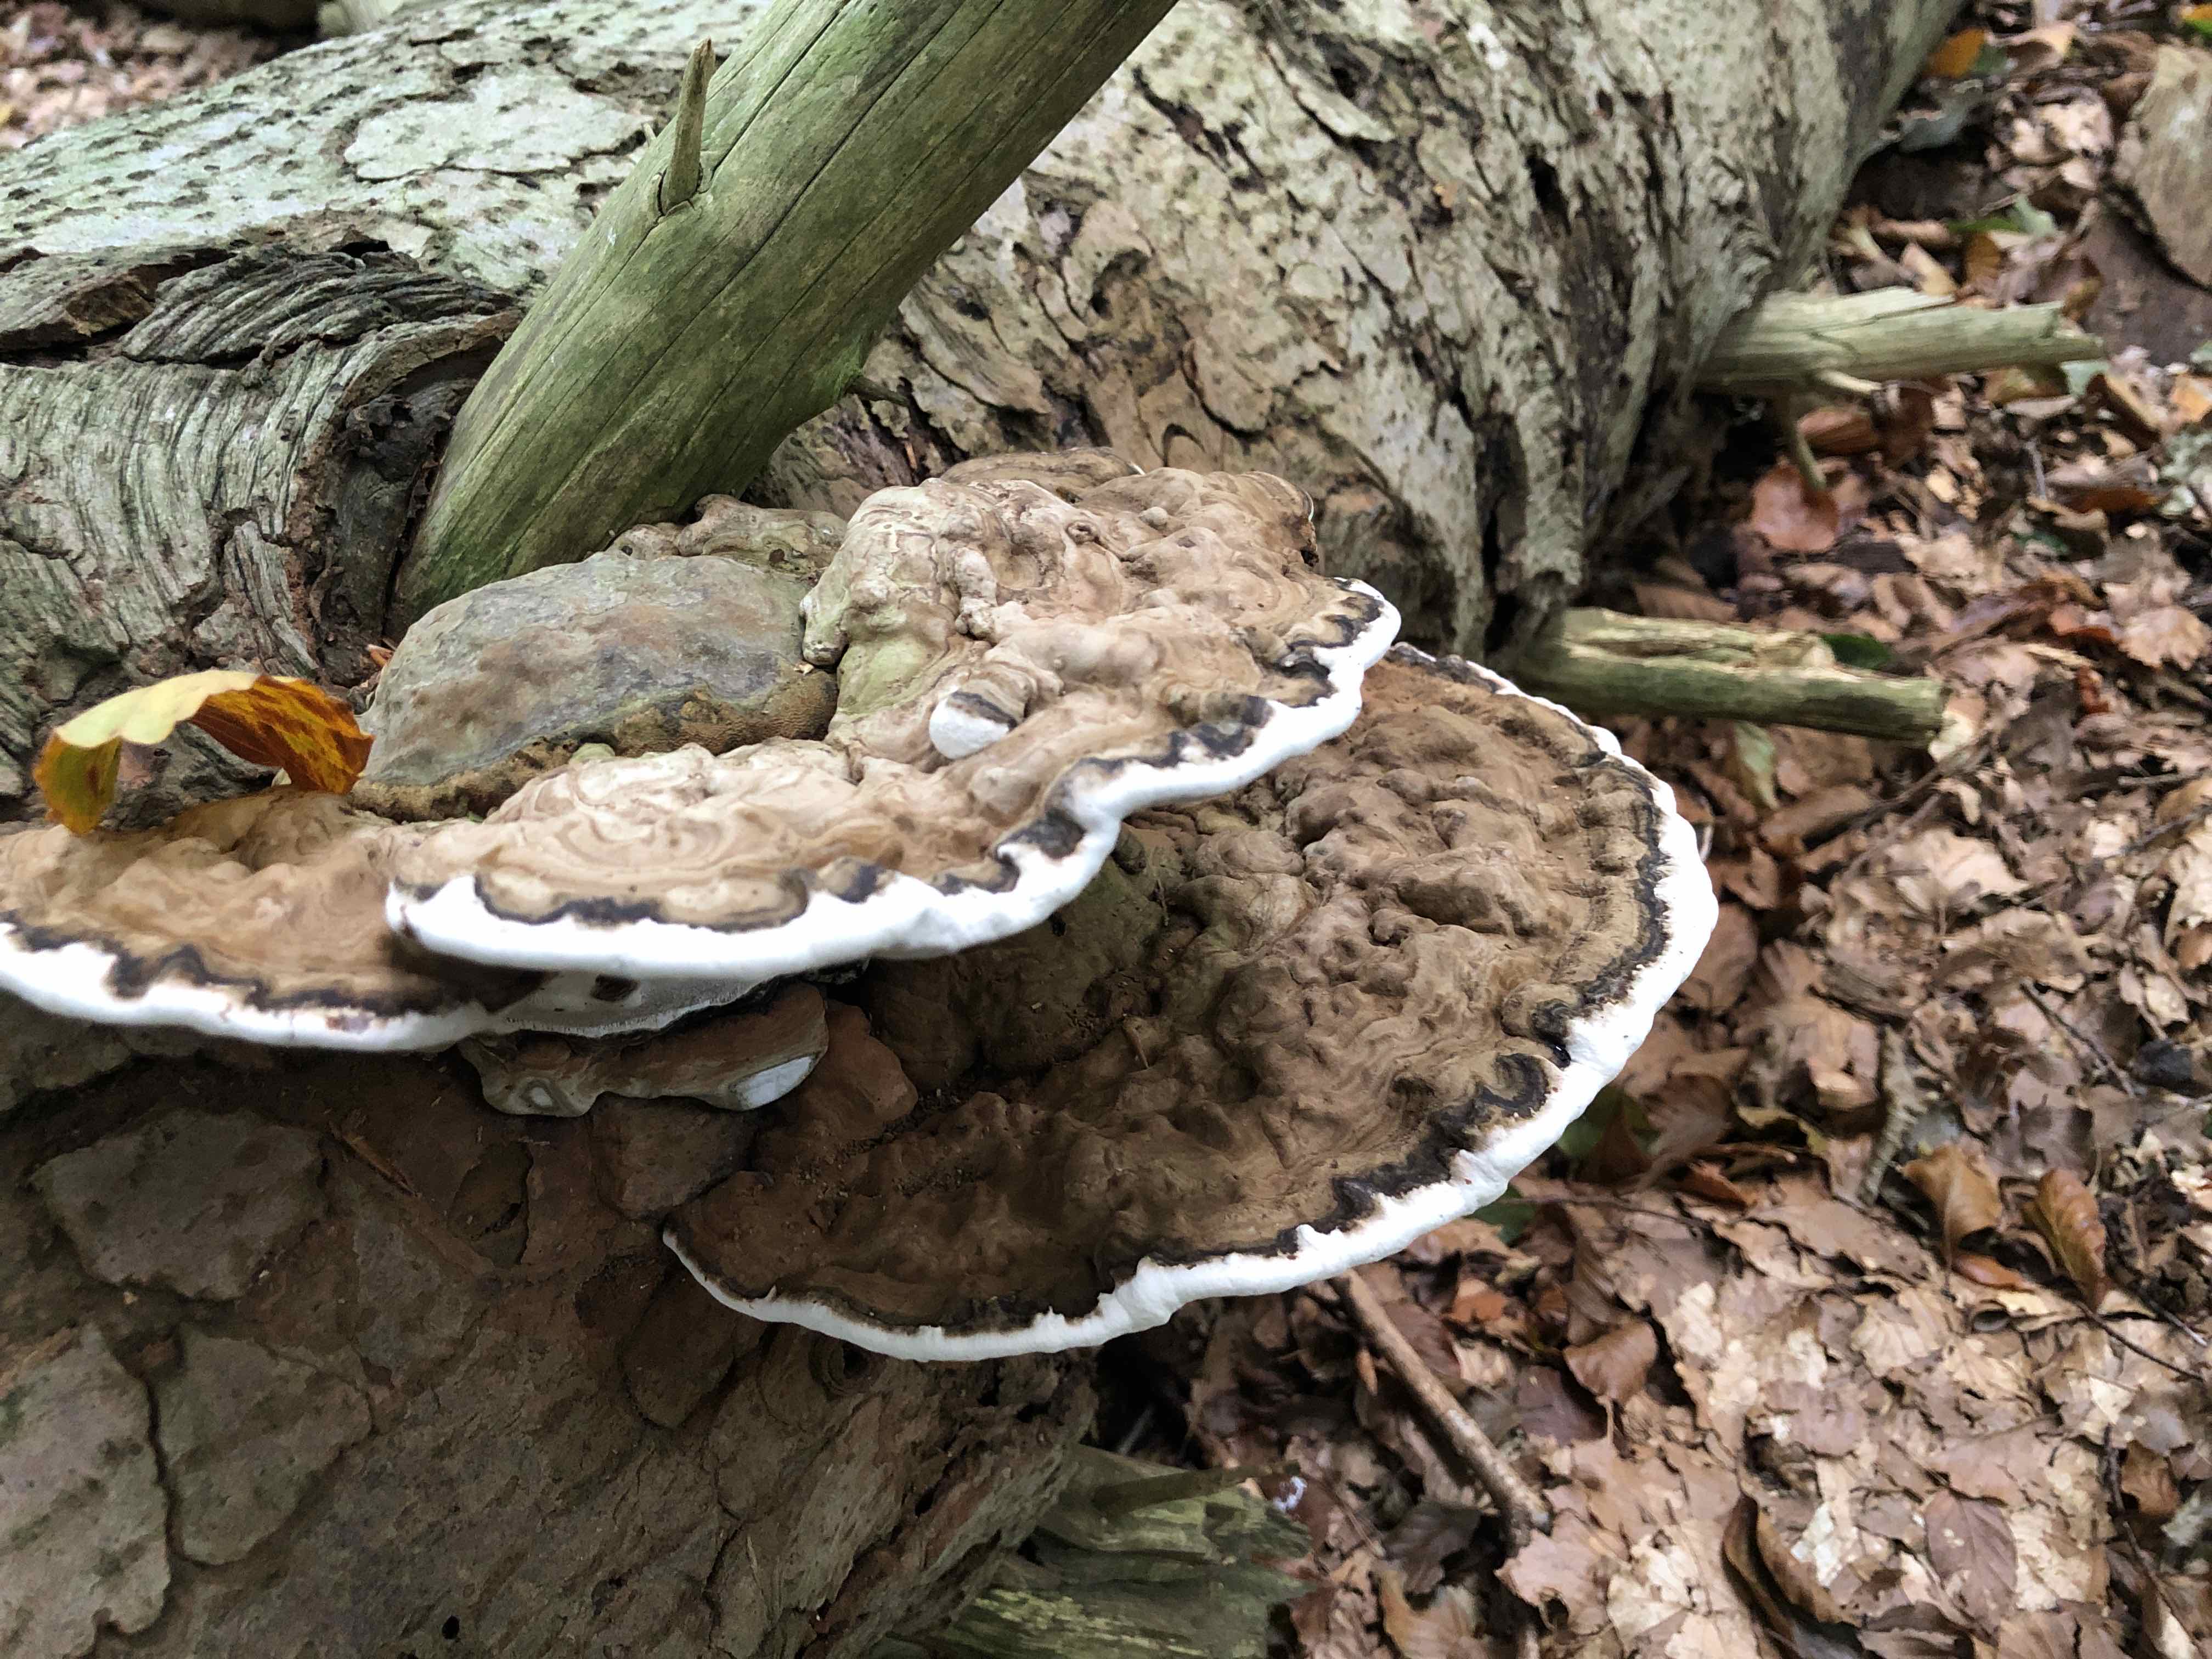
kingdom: Fungi
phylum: Basidiomycota
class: Agaricomycetes
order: Polyporales
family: Polyporaceae
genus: Ganoderma
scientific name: Ganoderma applanatum
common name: flad lakporesvamp
